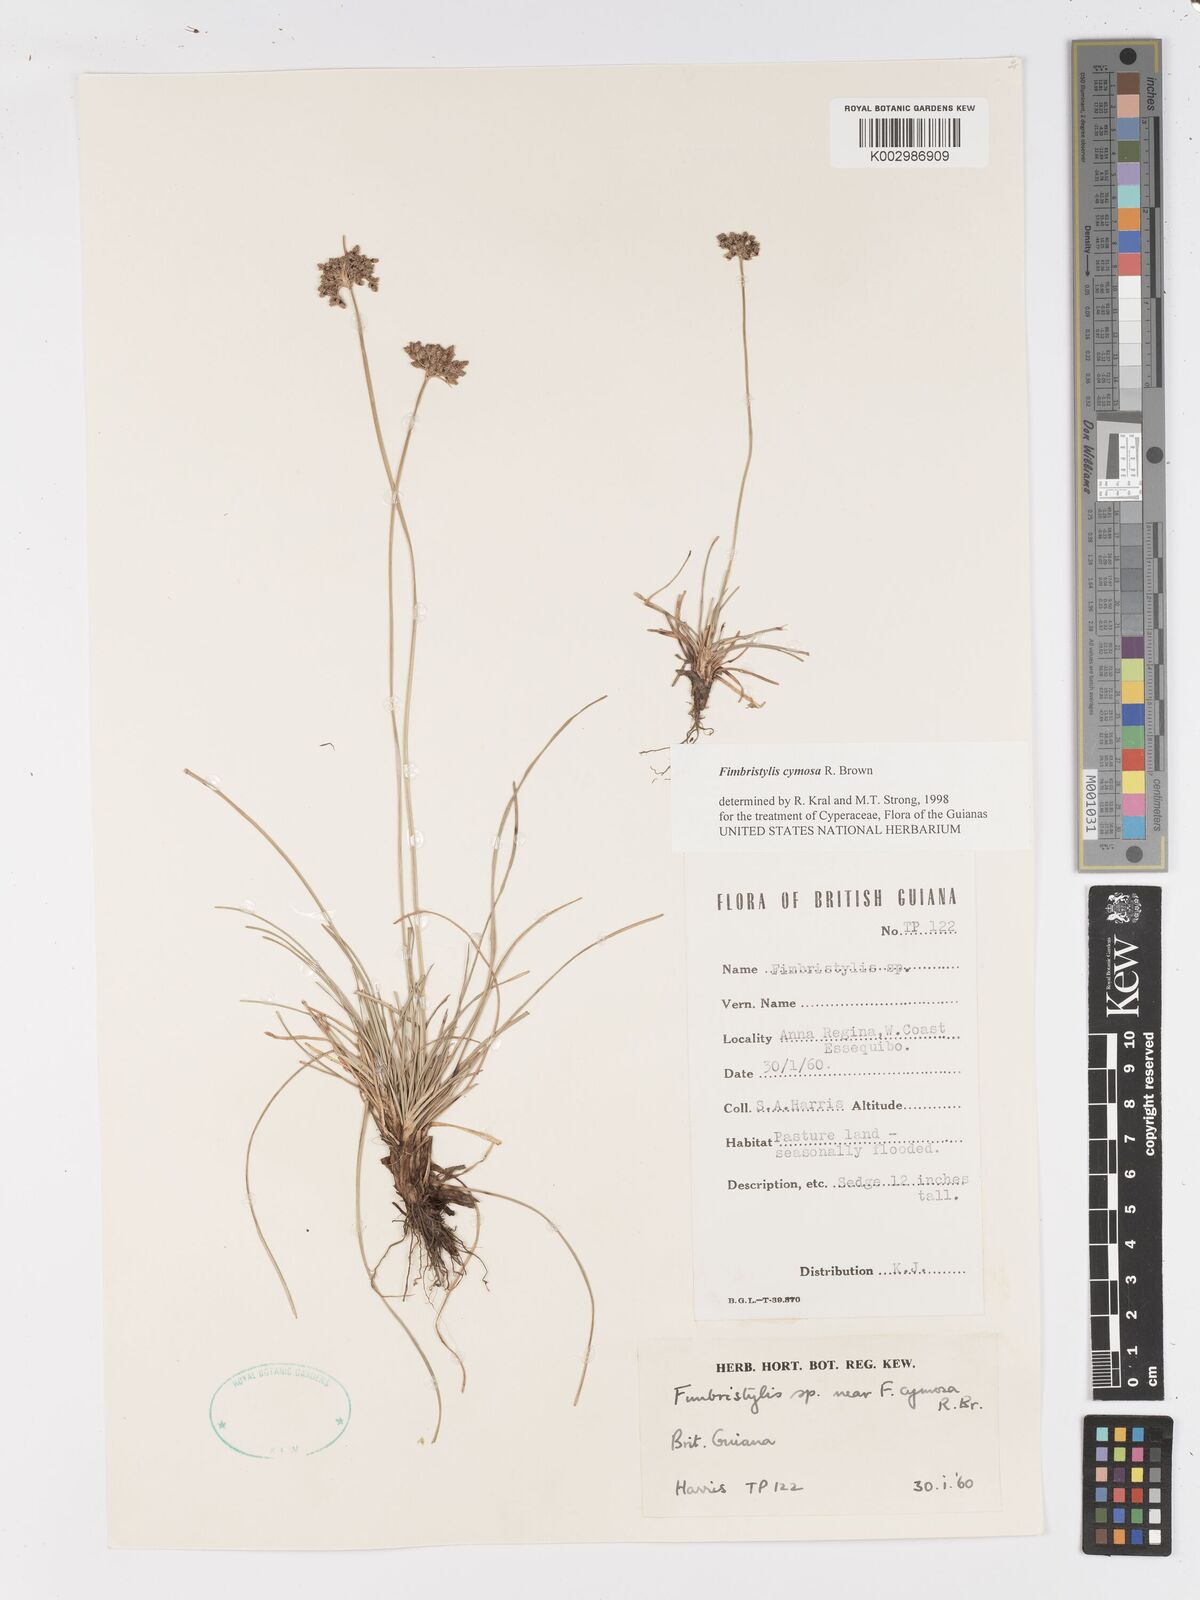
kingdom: Plantae
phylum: Tracheophyta
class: Liliopsida
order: Poales
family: Cyperaceae
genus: Fimbristylis
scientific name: Fimbristylis cymosa
